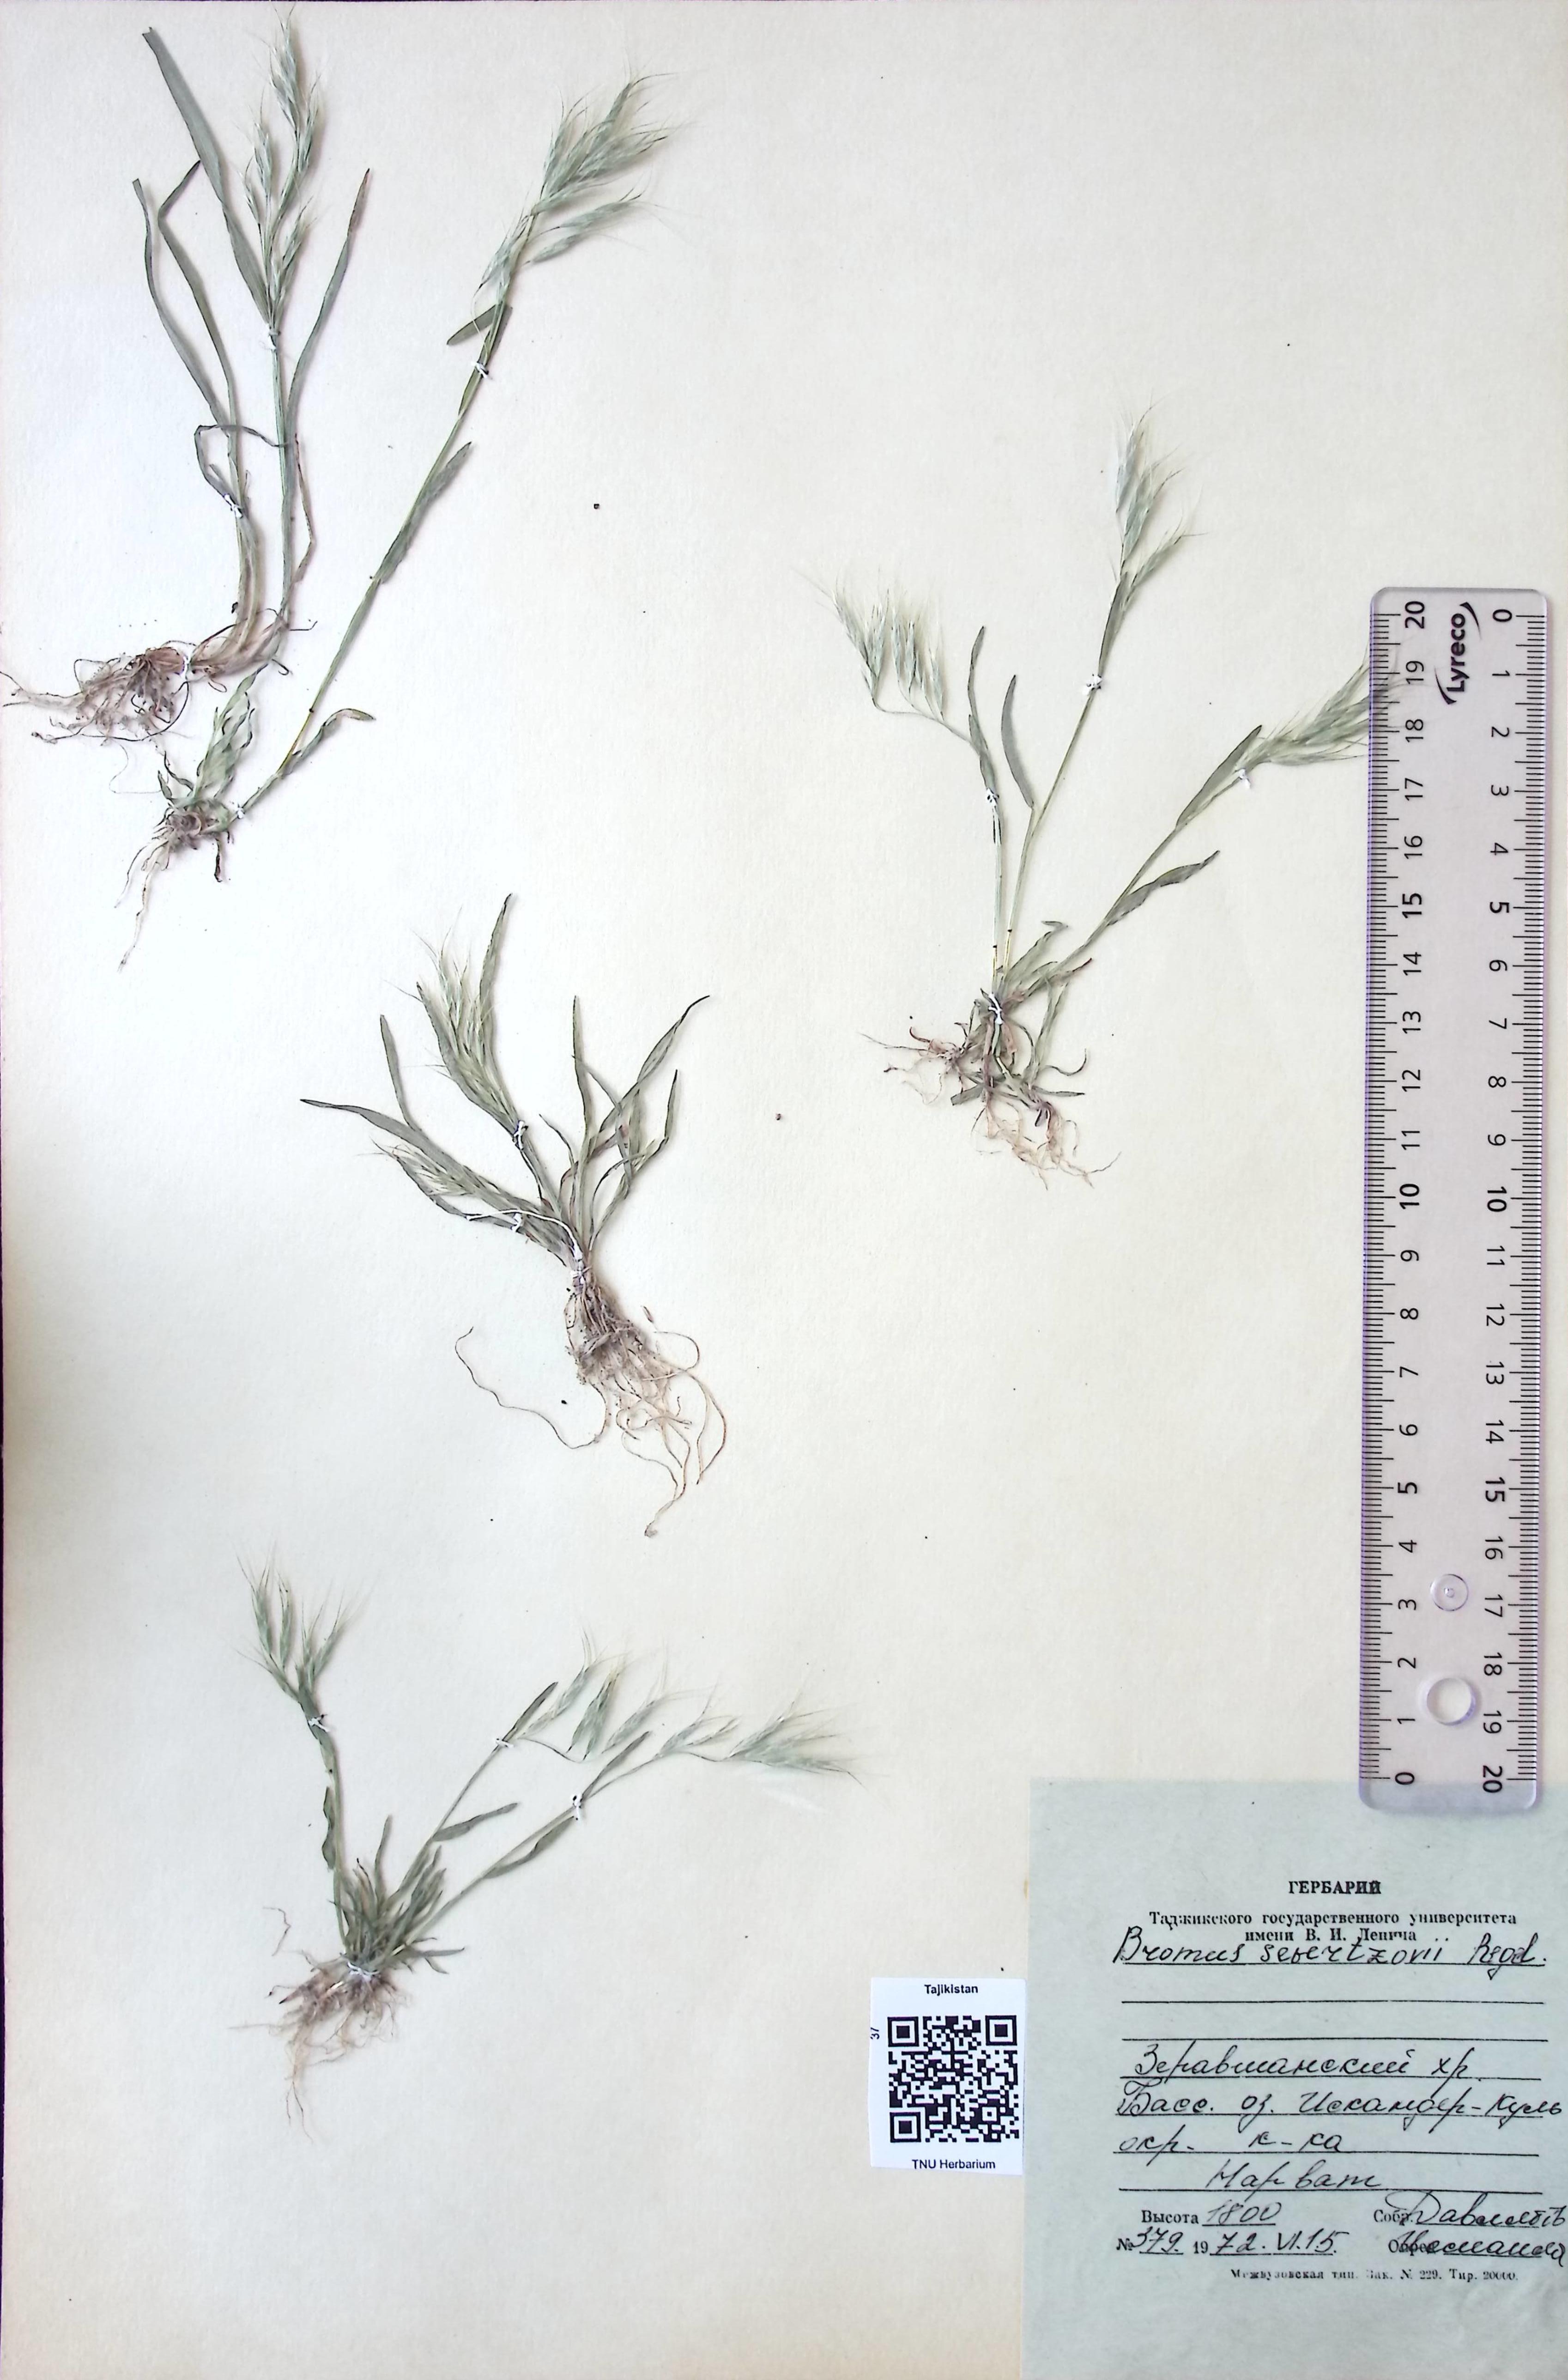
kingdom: Plantae
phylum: Tracheophyta
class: Liliopsida
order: Poales
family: Poaceae
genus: Bromus
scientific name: Bromus sewerzowii
